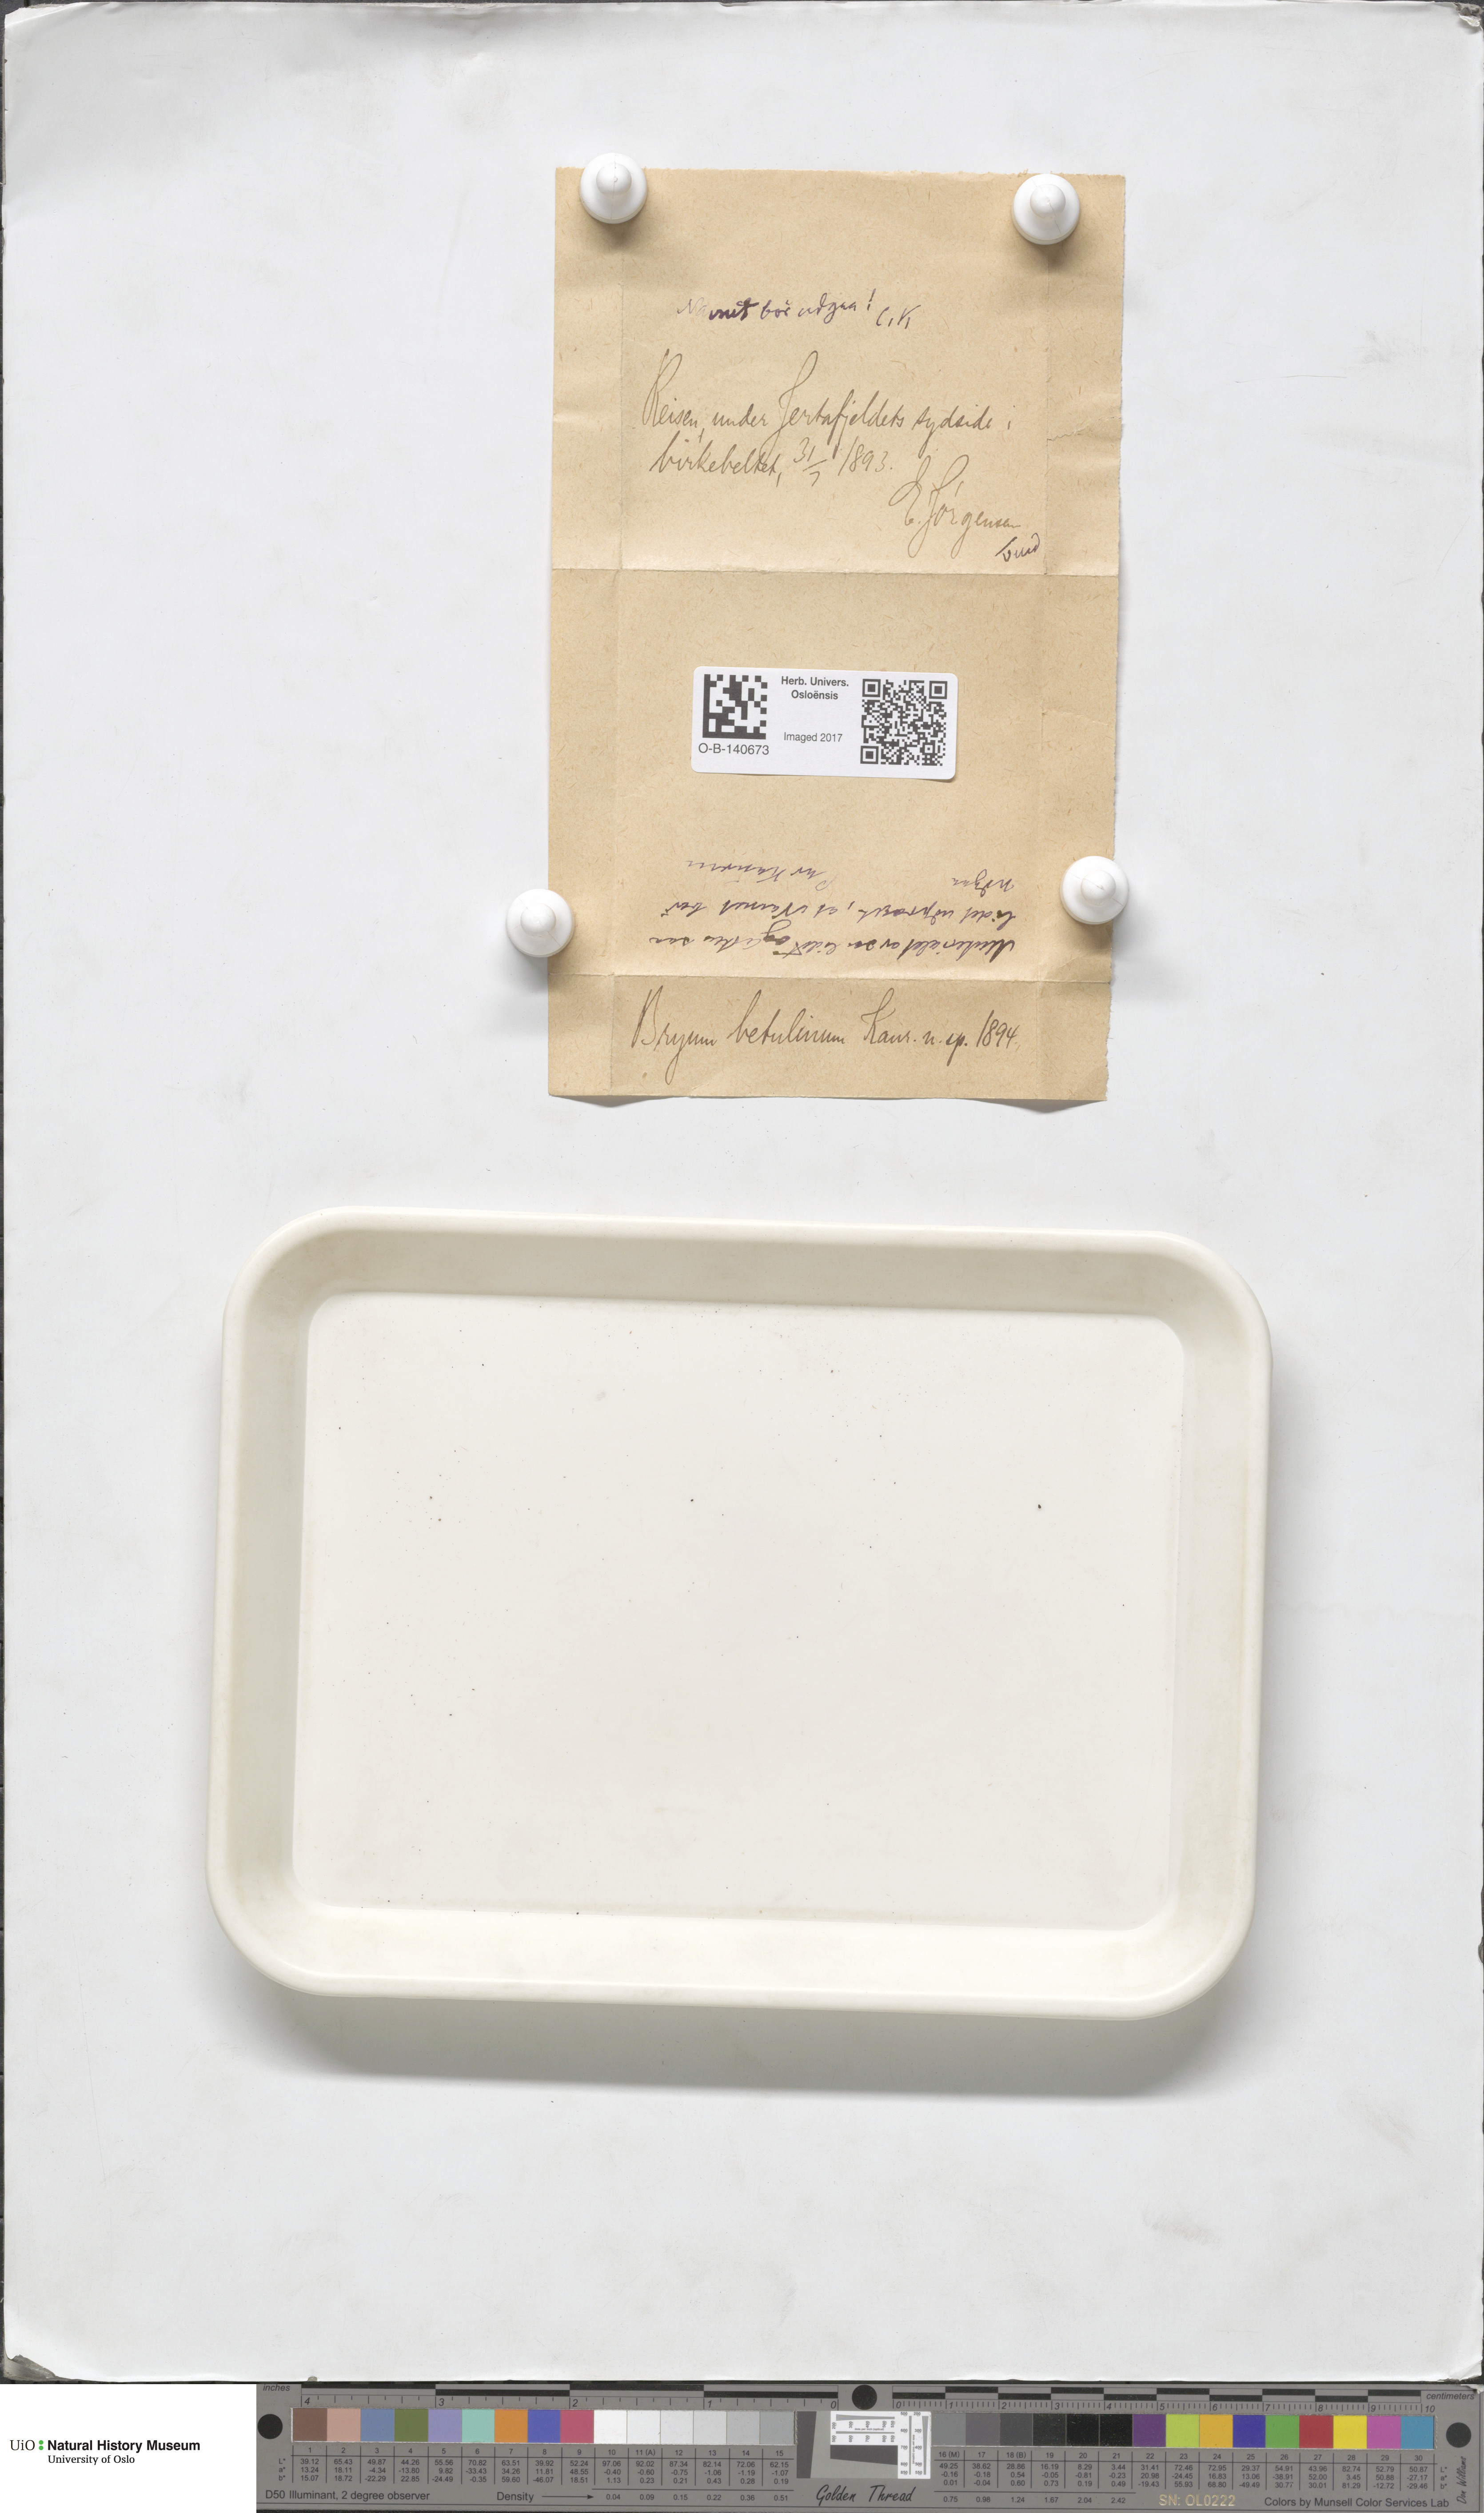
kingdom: Plantae
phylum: Bryophyta
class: Bryopsida
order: Bryales
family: Bryaceae
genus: Ptychostomum
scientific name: Ptychostomum pallens
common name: Pale thread-moss
